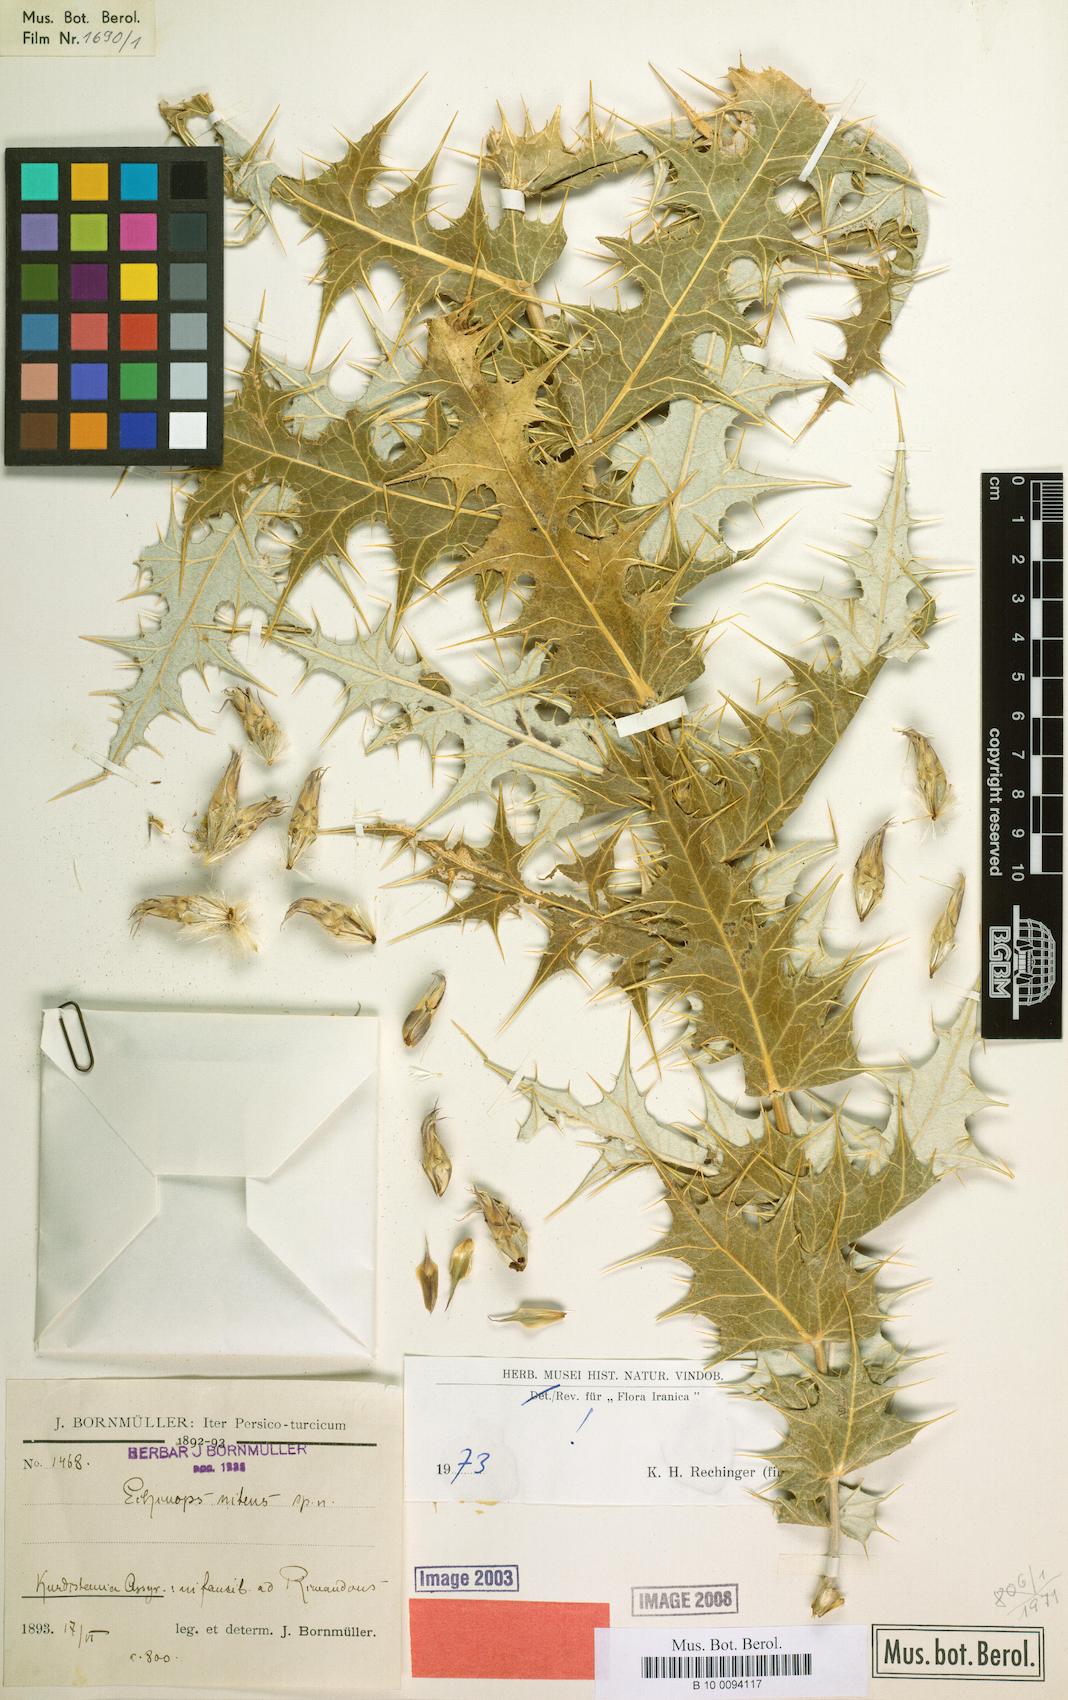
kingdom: Plantae
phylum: Tracheophyta
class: Magnoliopsida
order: Asterales
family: Asteraceae
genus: Echinops
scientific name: Echinops nitens
